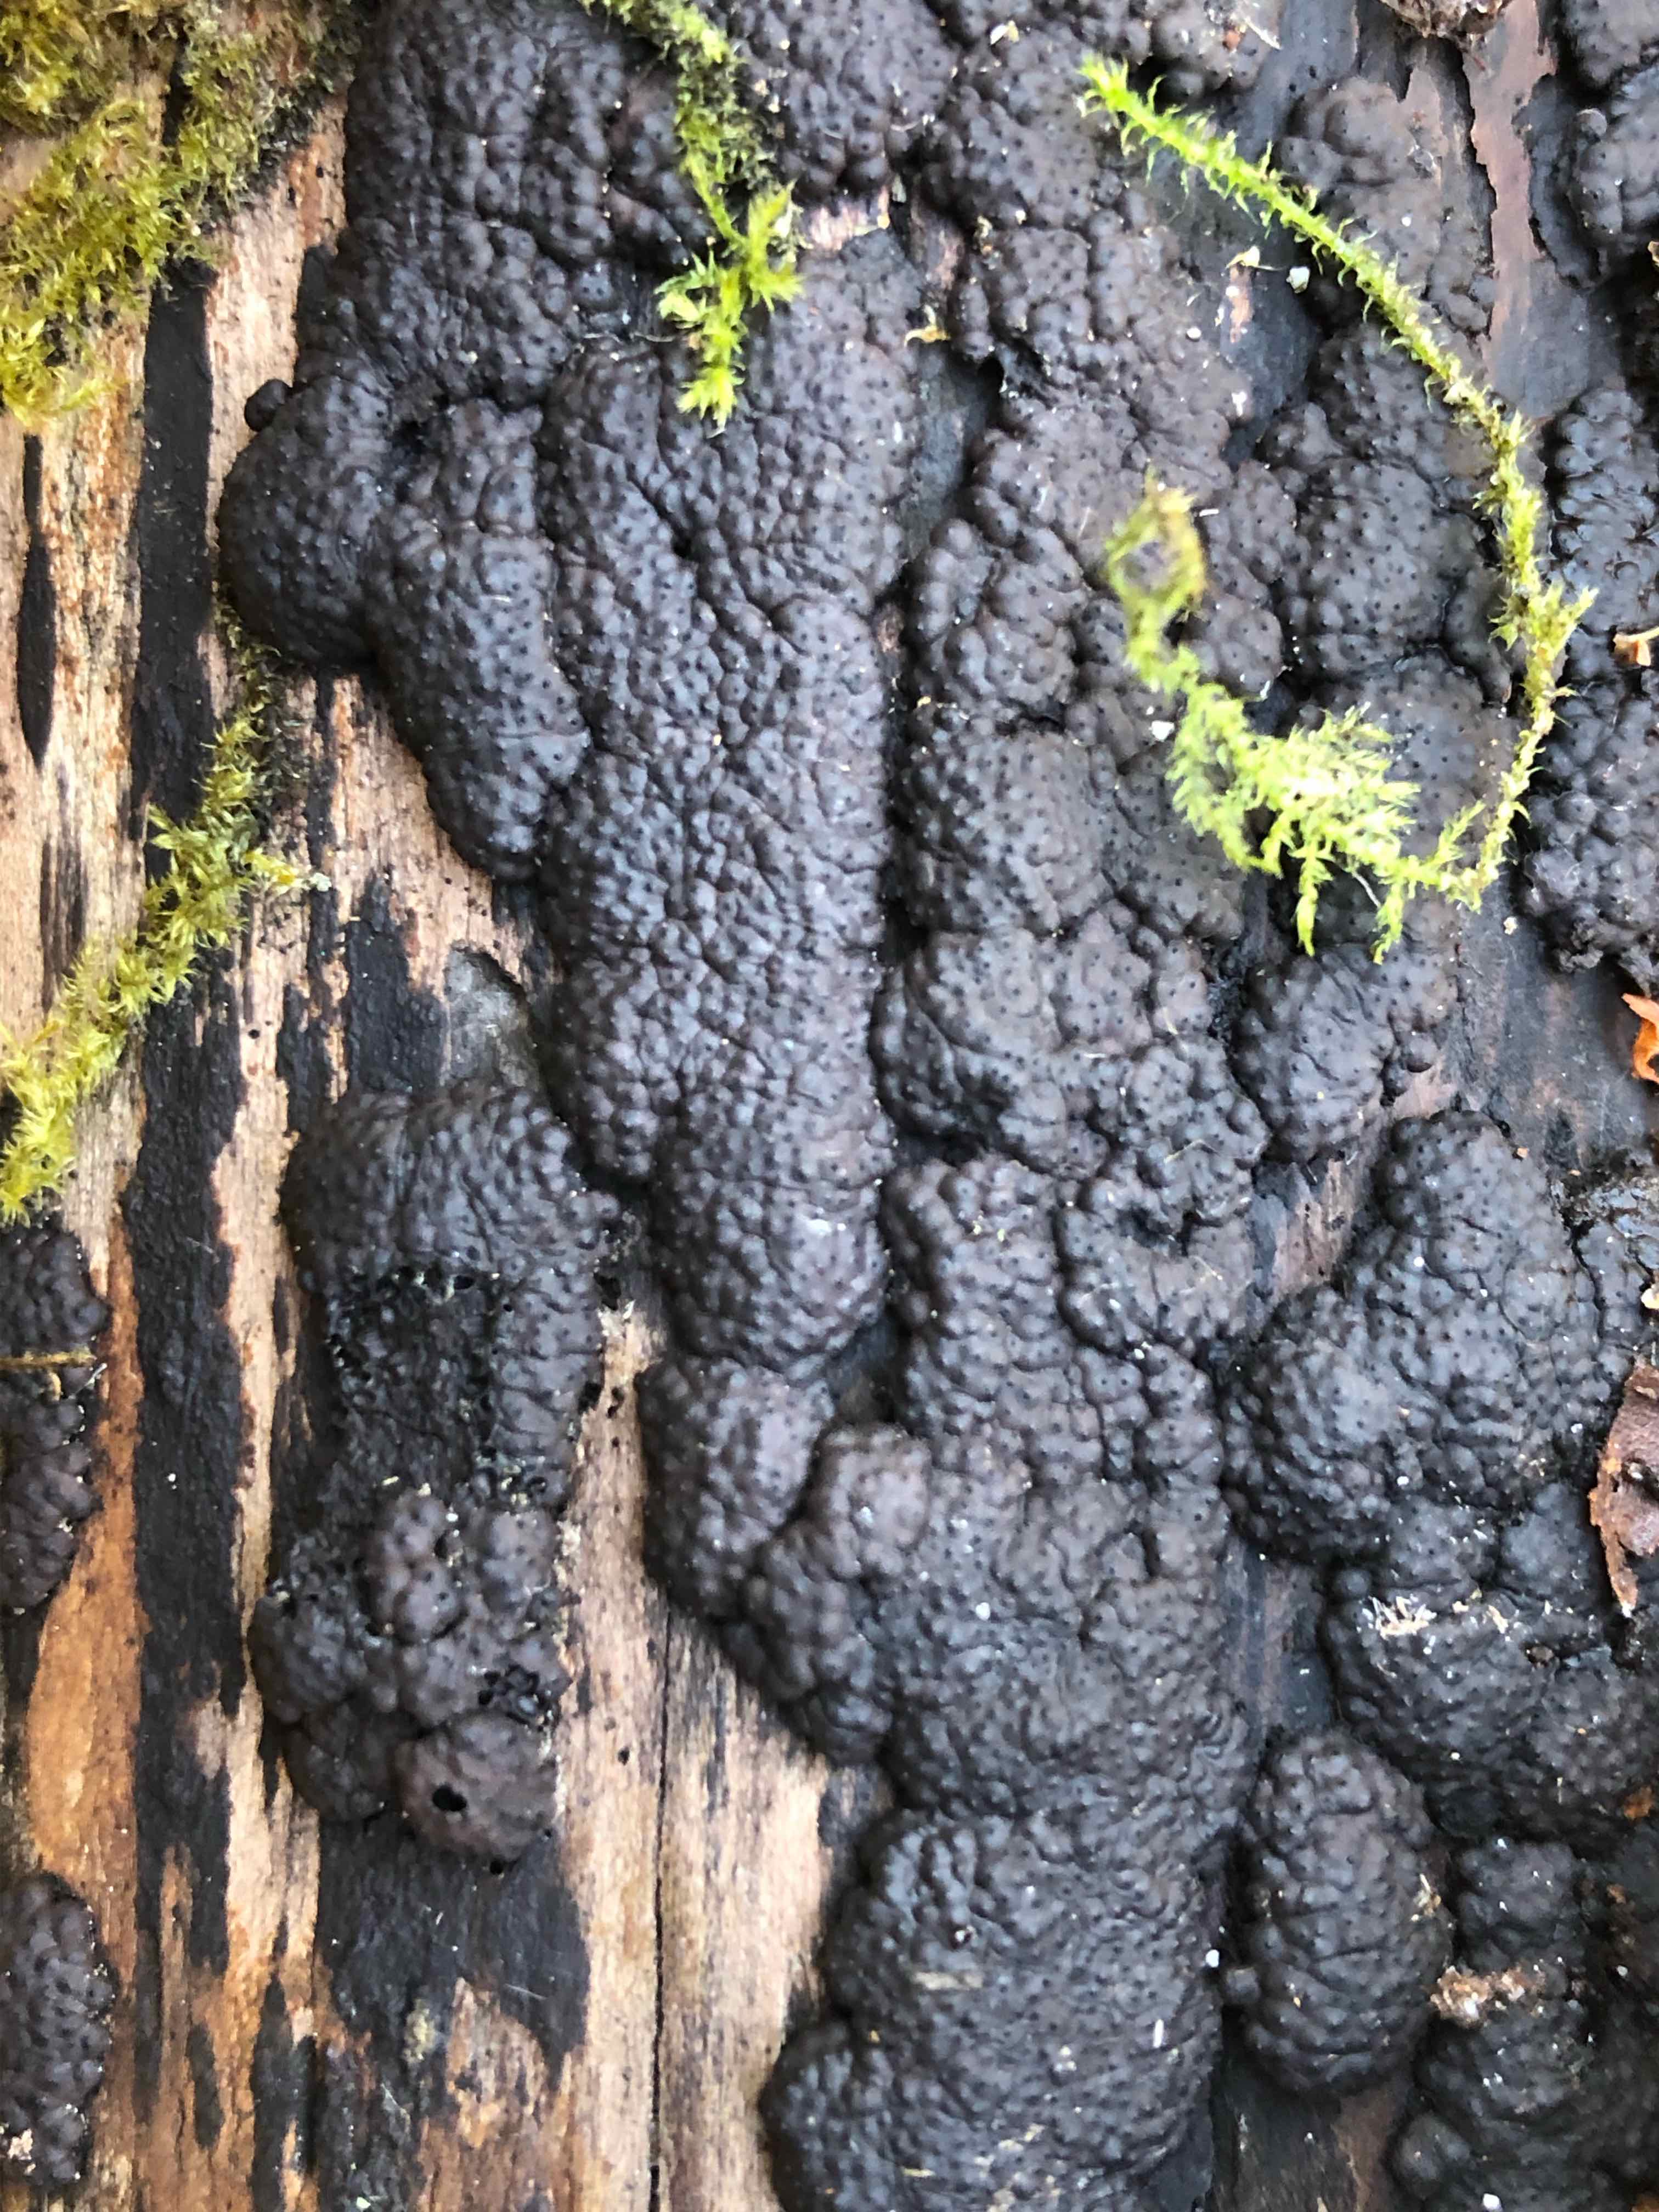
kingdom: Fungi
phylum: Ascomycota
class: Sordariomycetes
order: Xylariales
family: Hypoxylaceae
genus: Jackrogersella
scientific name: Jackrogersella multiformis
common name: foranderlig kulbær
